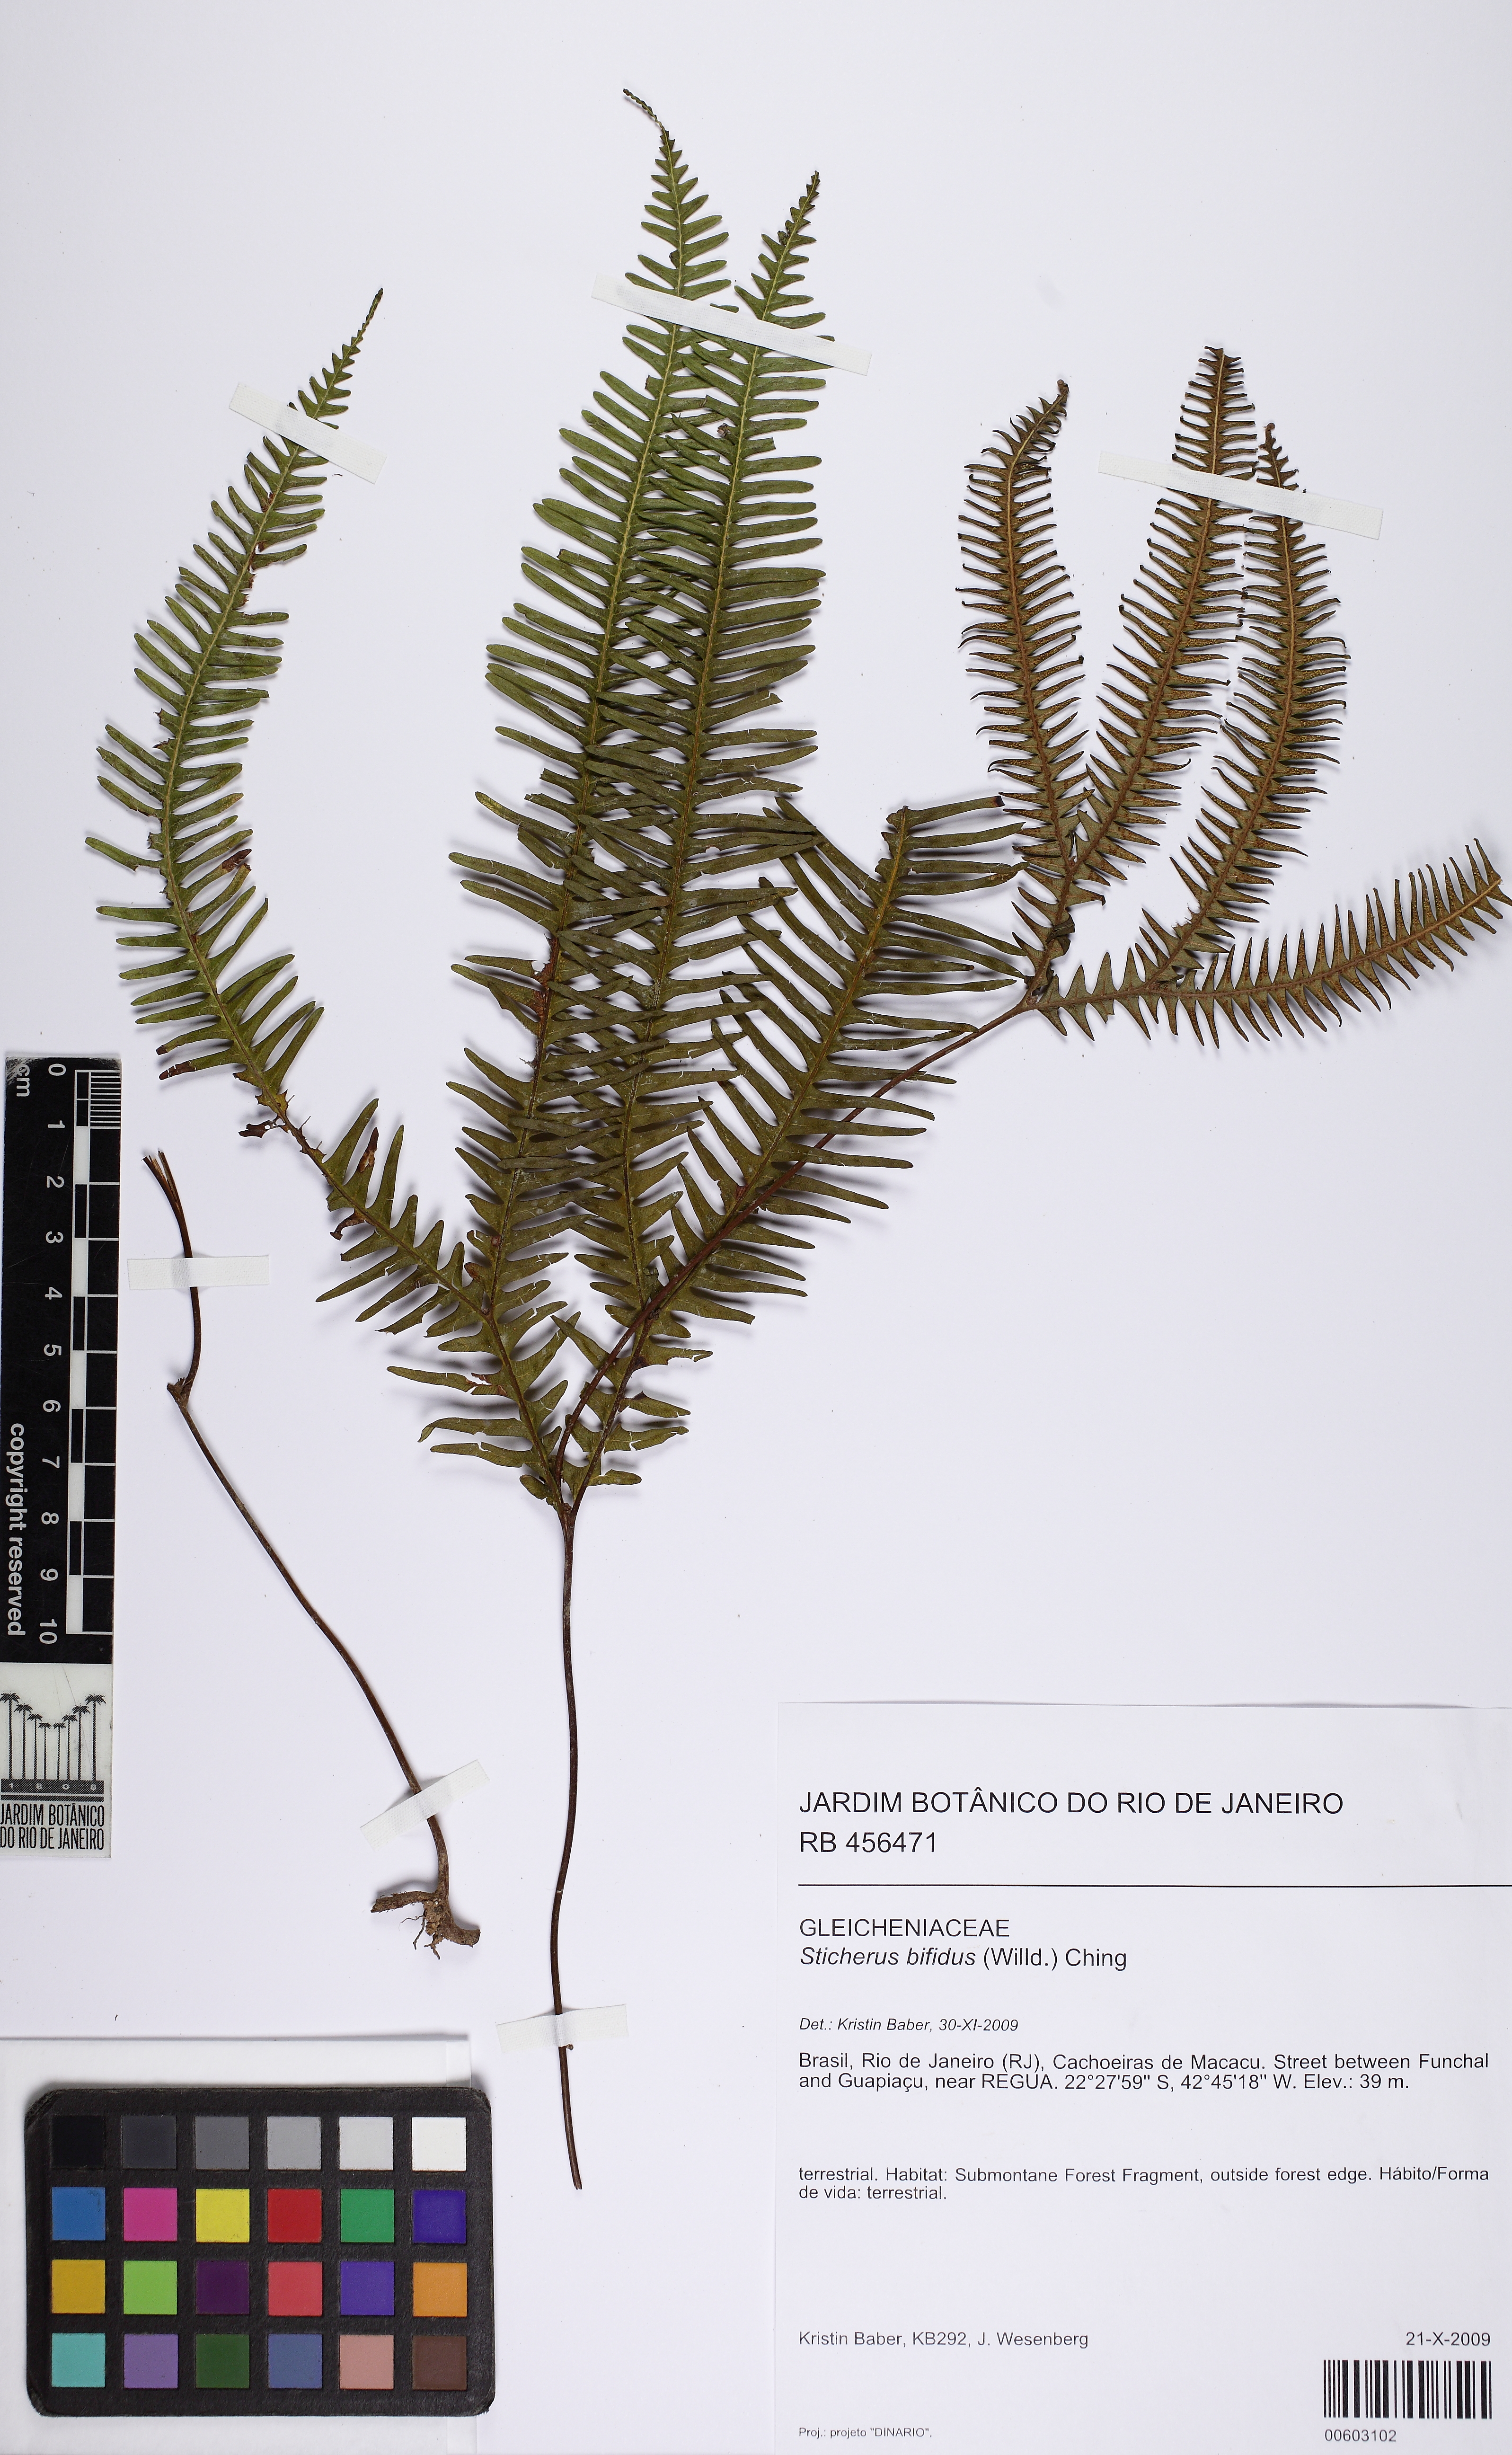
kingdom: Plantae
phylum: Tracheophyta
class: Polypodiopsida
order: Gleicheniales
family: Gleicheniaceae
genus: Sticherus
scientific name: Sticherus bifidus
